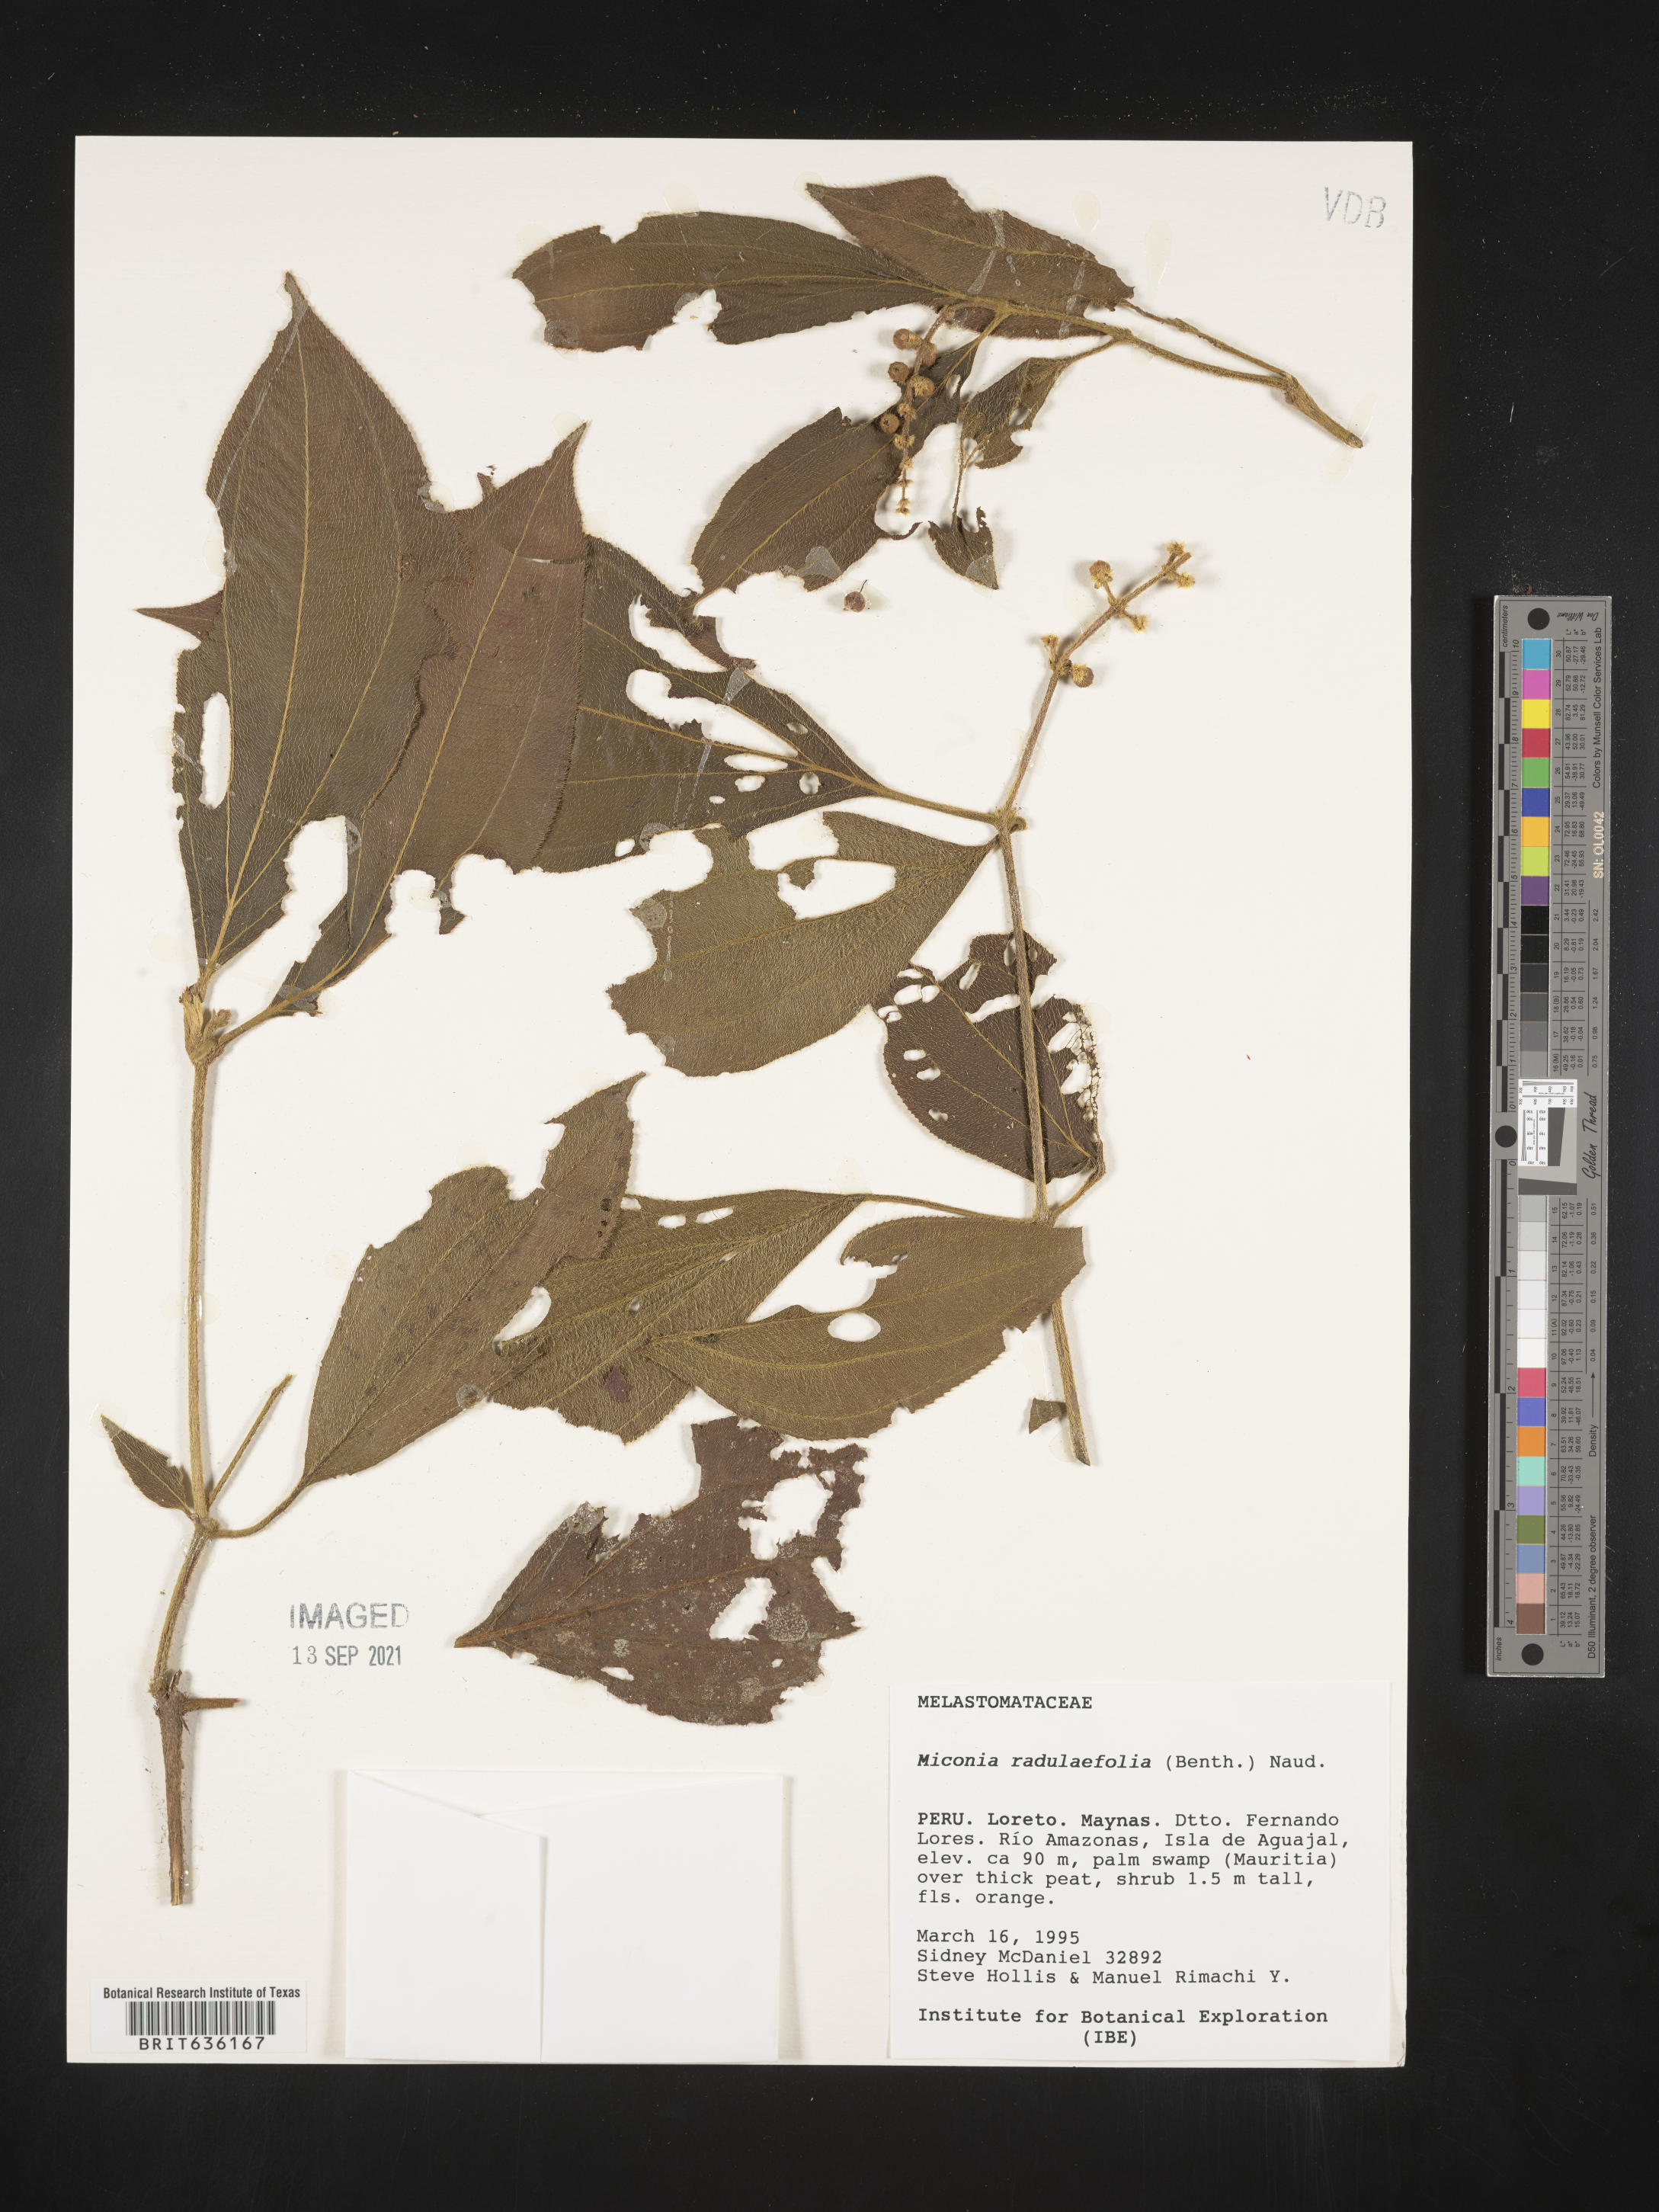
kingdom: Plantae
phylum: Tracheophyta
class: Magnoliopsida
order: Myrtales
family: Melastomataceae
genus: Miconia
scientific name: Miconia
